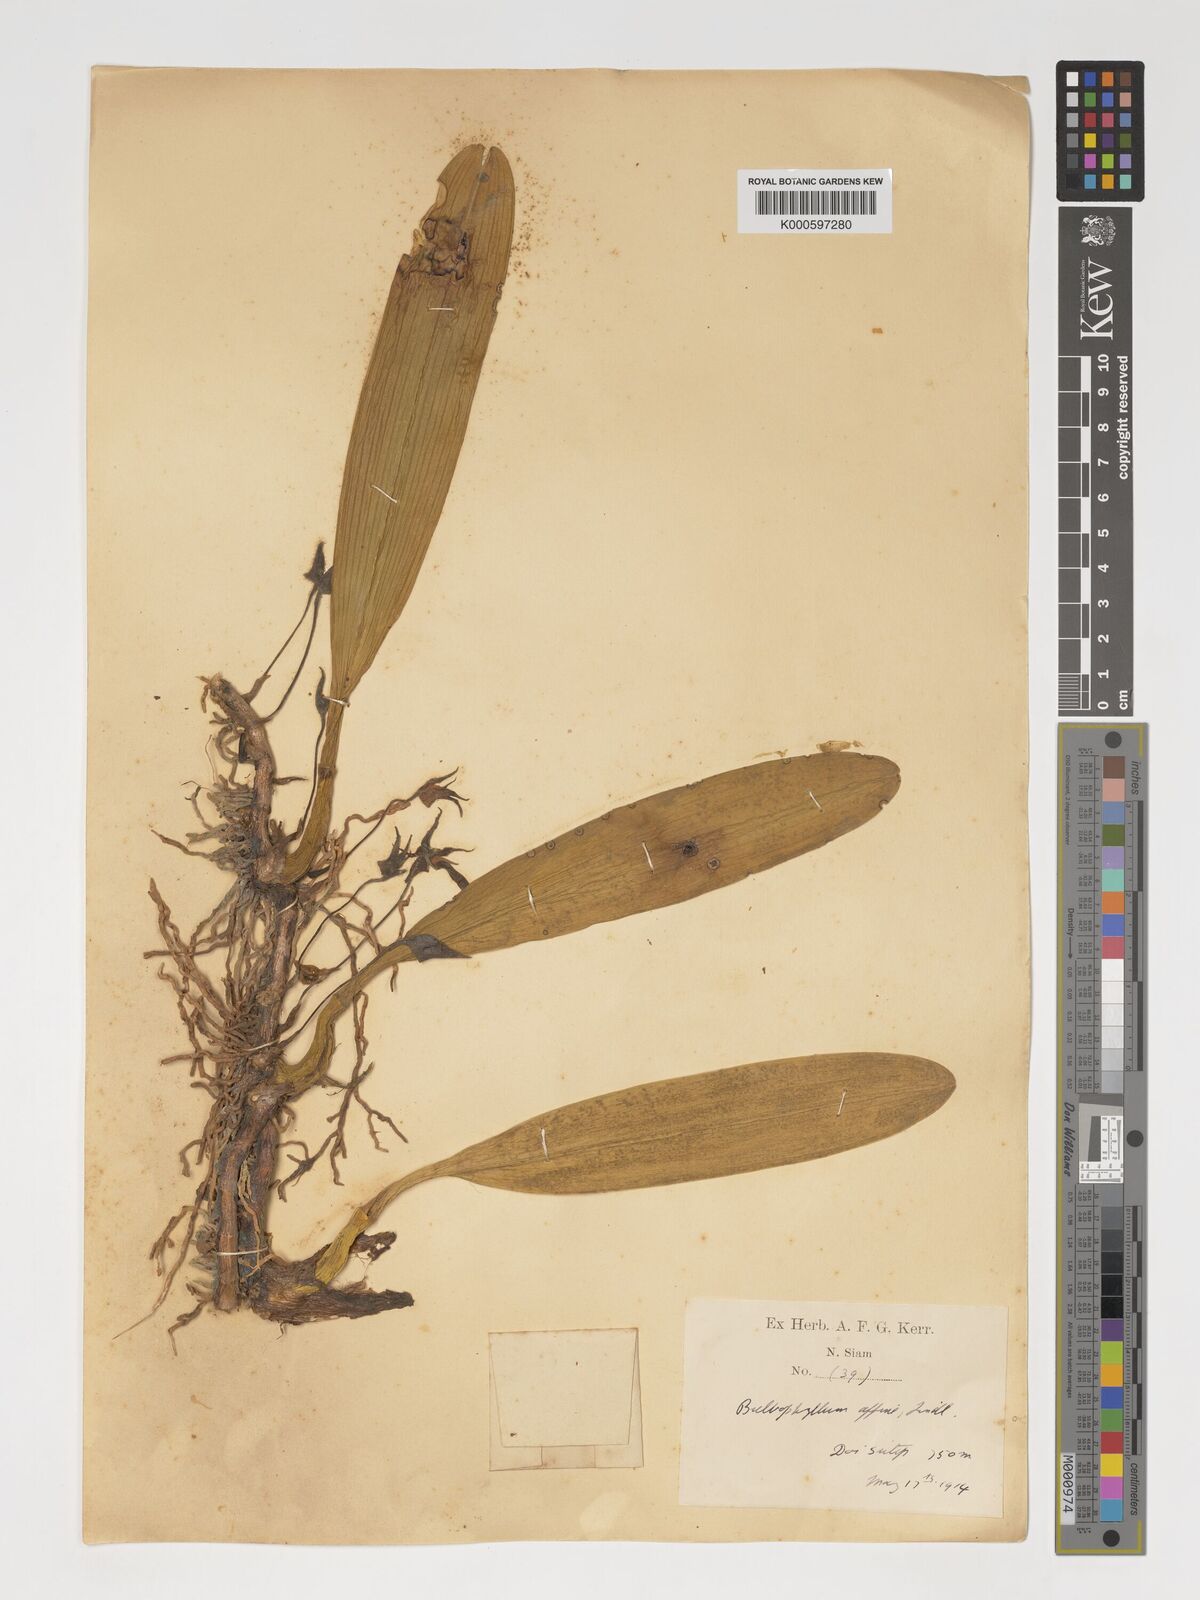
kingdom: Plantae
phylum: Tracheophyta
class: Liliopsida
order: Asparagales
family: Orchidaceae
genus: Bulbophyllum
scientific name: Bulbophyllum affine
